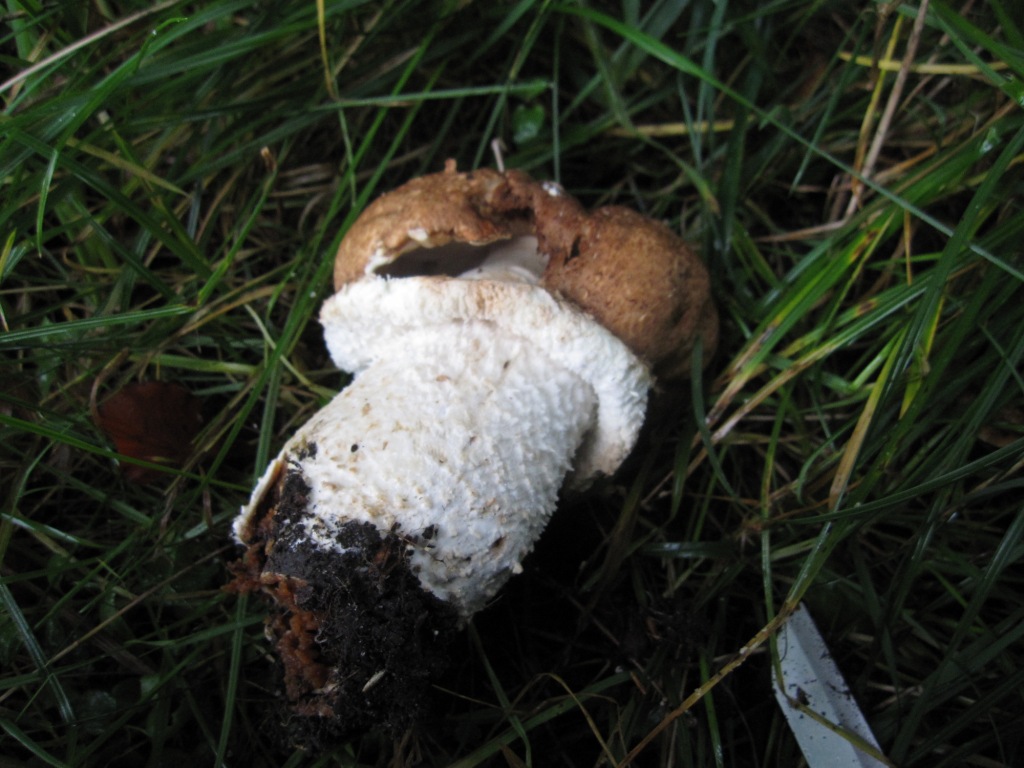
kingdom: Fungi
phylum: Basidiomycota
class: Agaricomycetes
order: Agaricales
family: Agaricaceae
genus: Agaricus
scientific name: Agaricus augustus
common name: prægtig champignon
